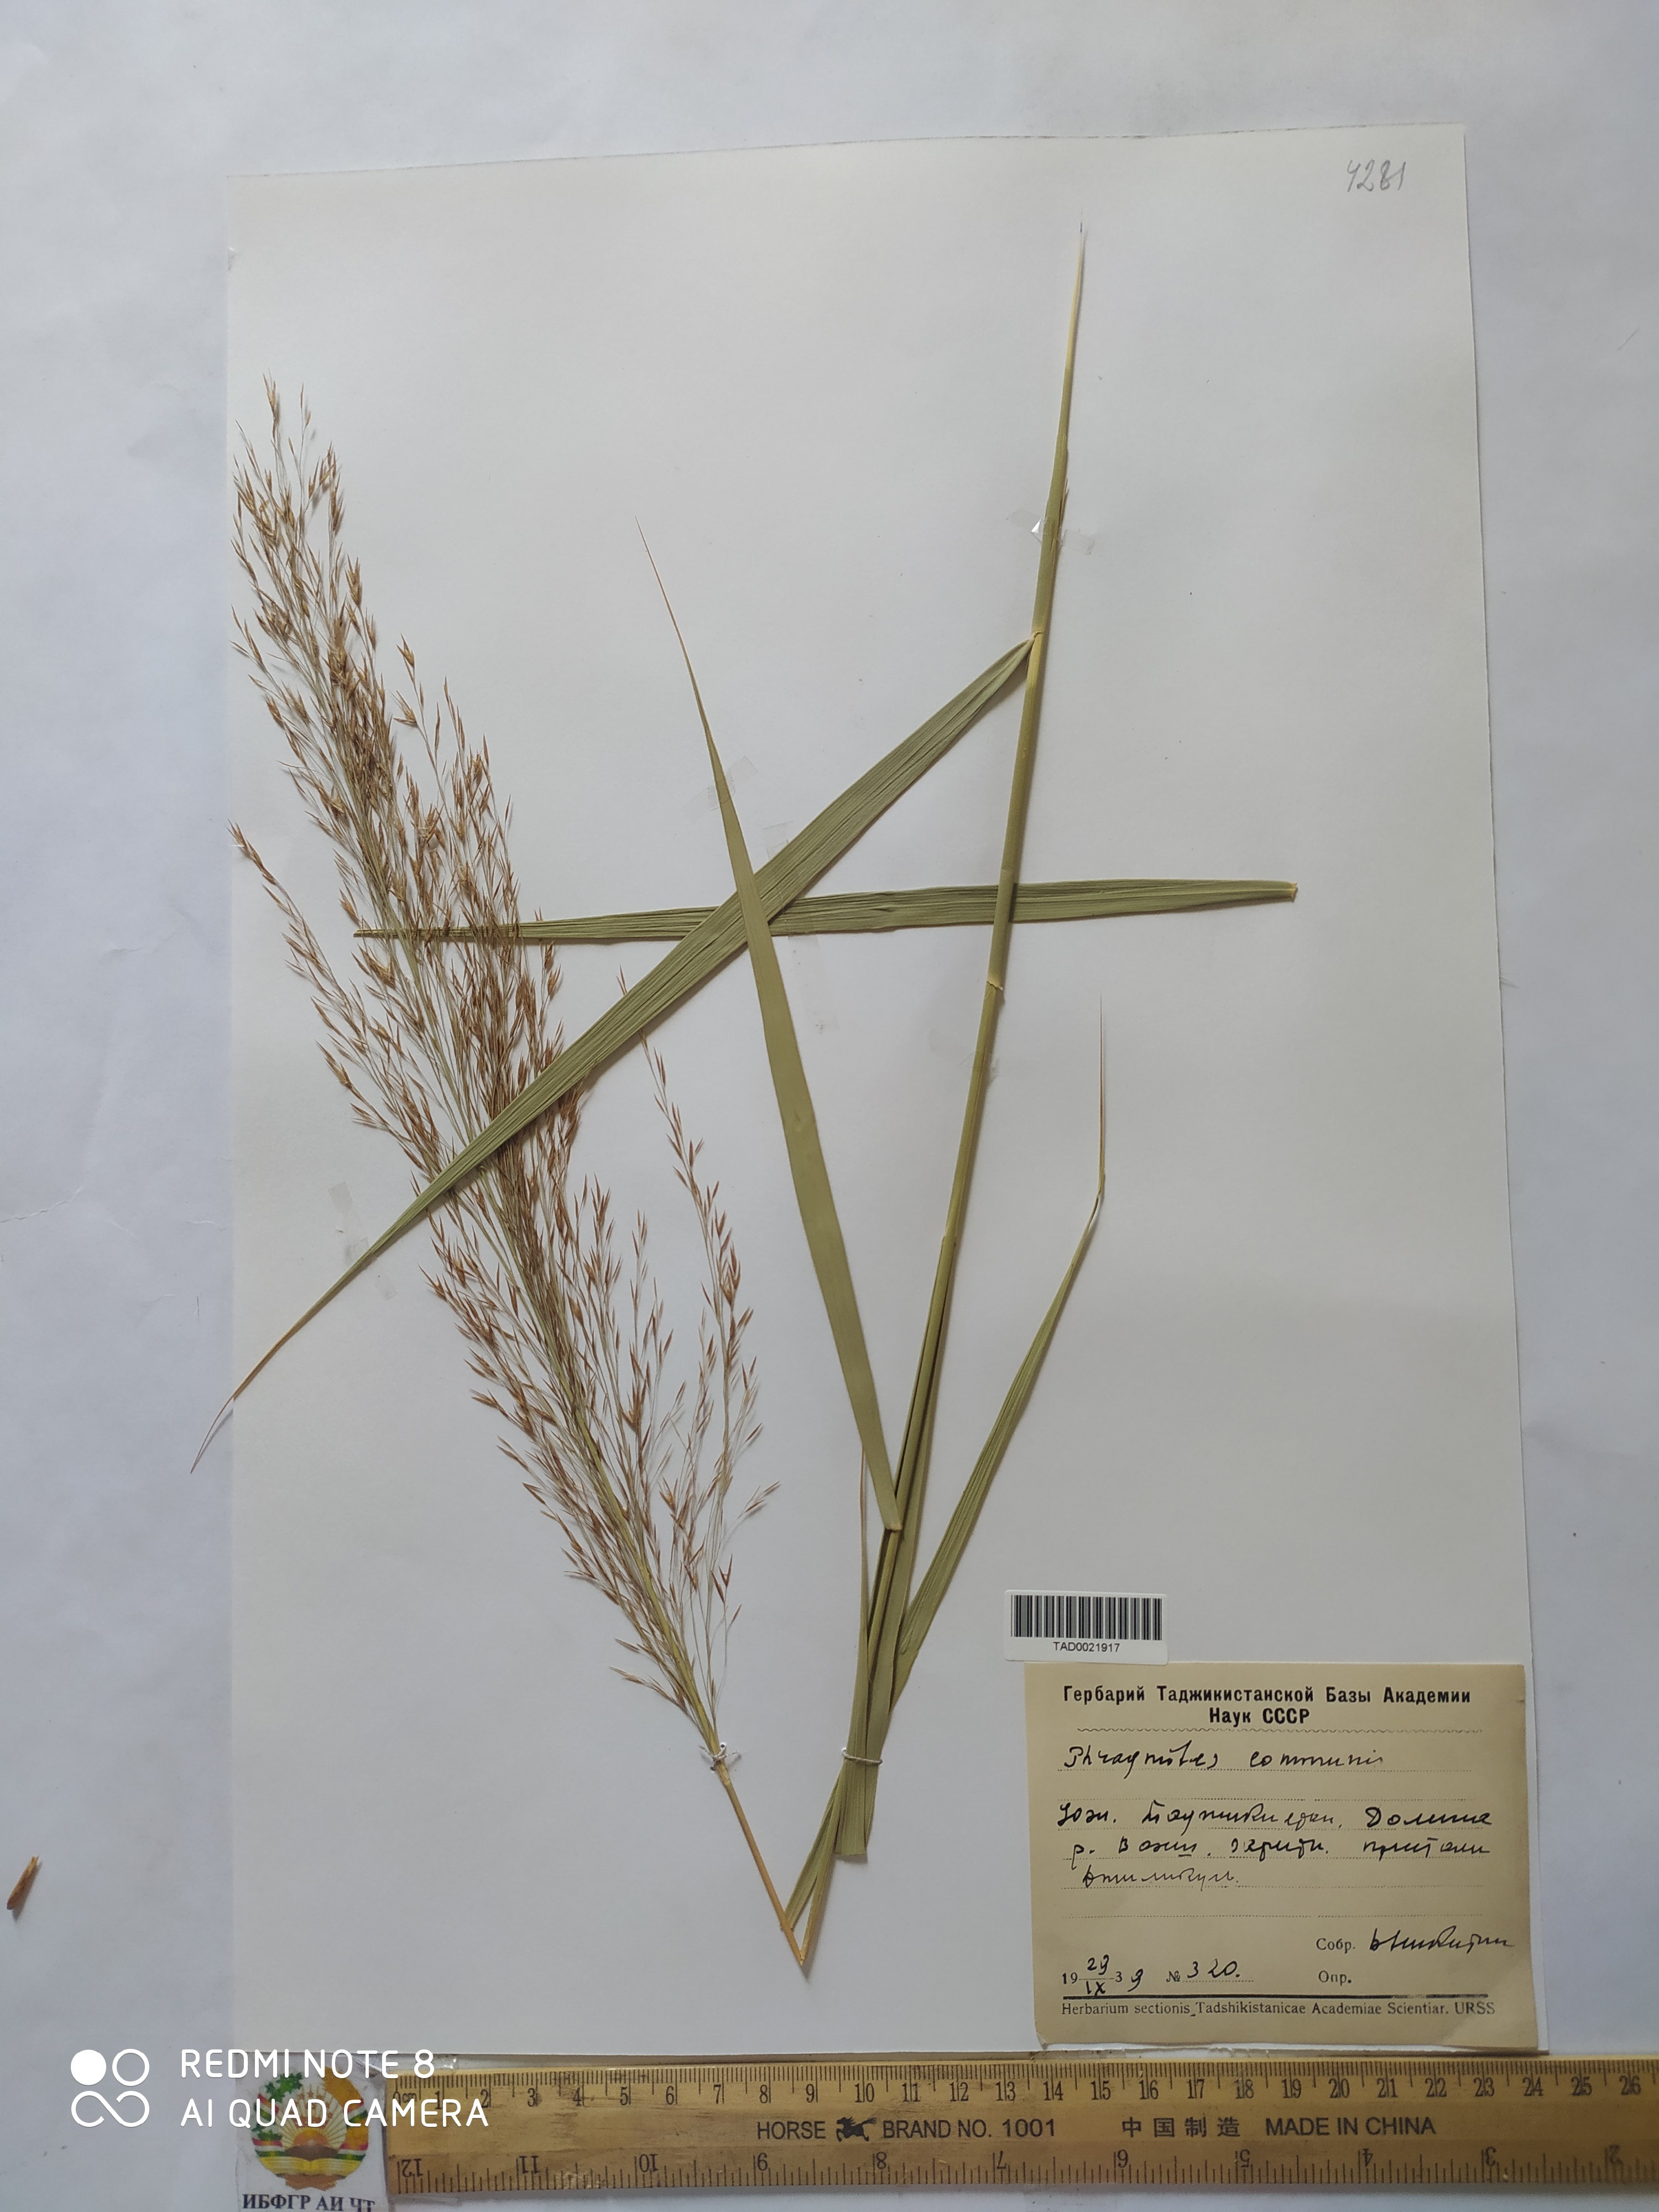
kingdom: Plantae
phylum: Tracheophyta
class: Liliopsida
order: Poales
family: Poaceae
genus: Phragmites
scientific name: Phragmites australis
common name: Common reed
